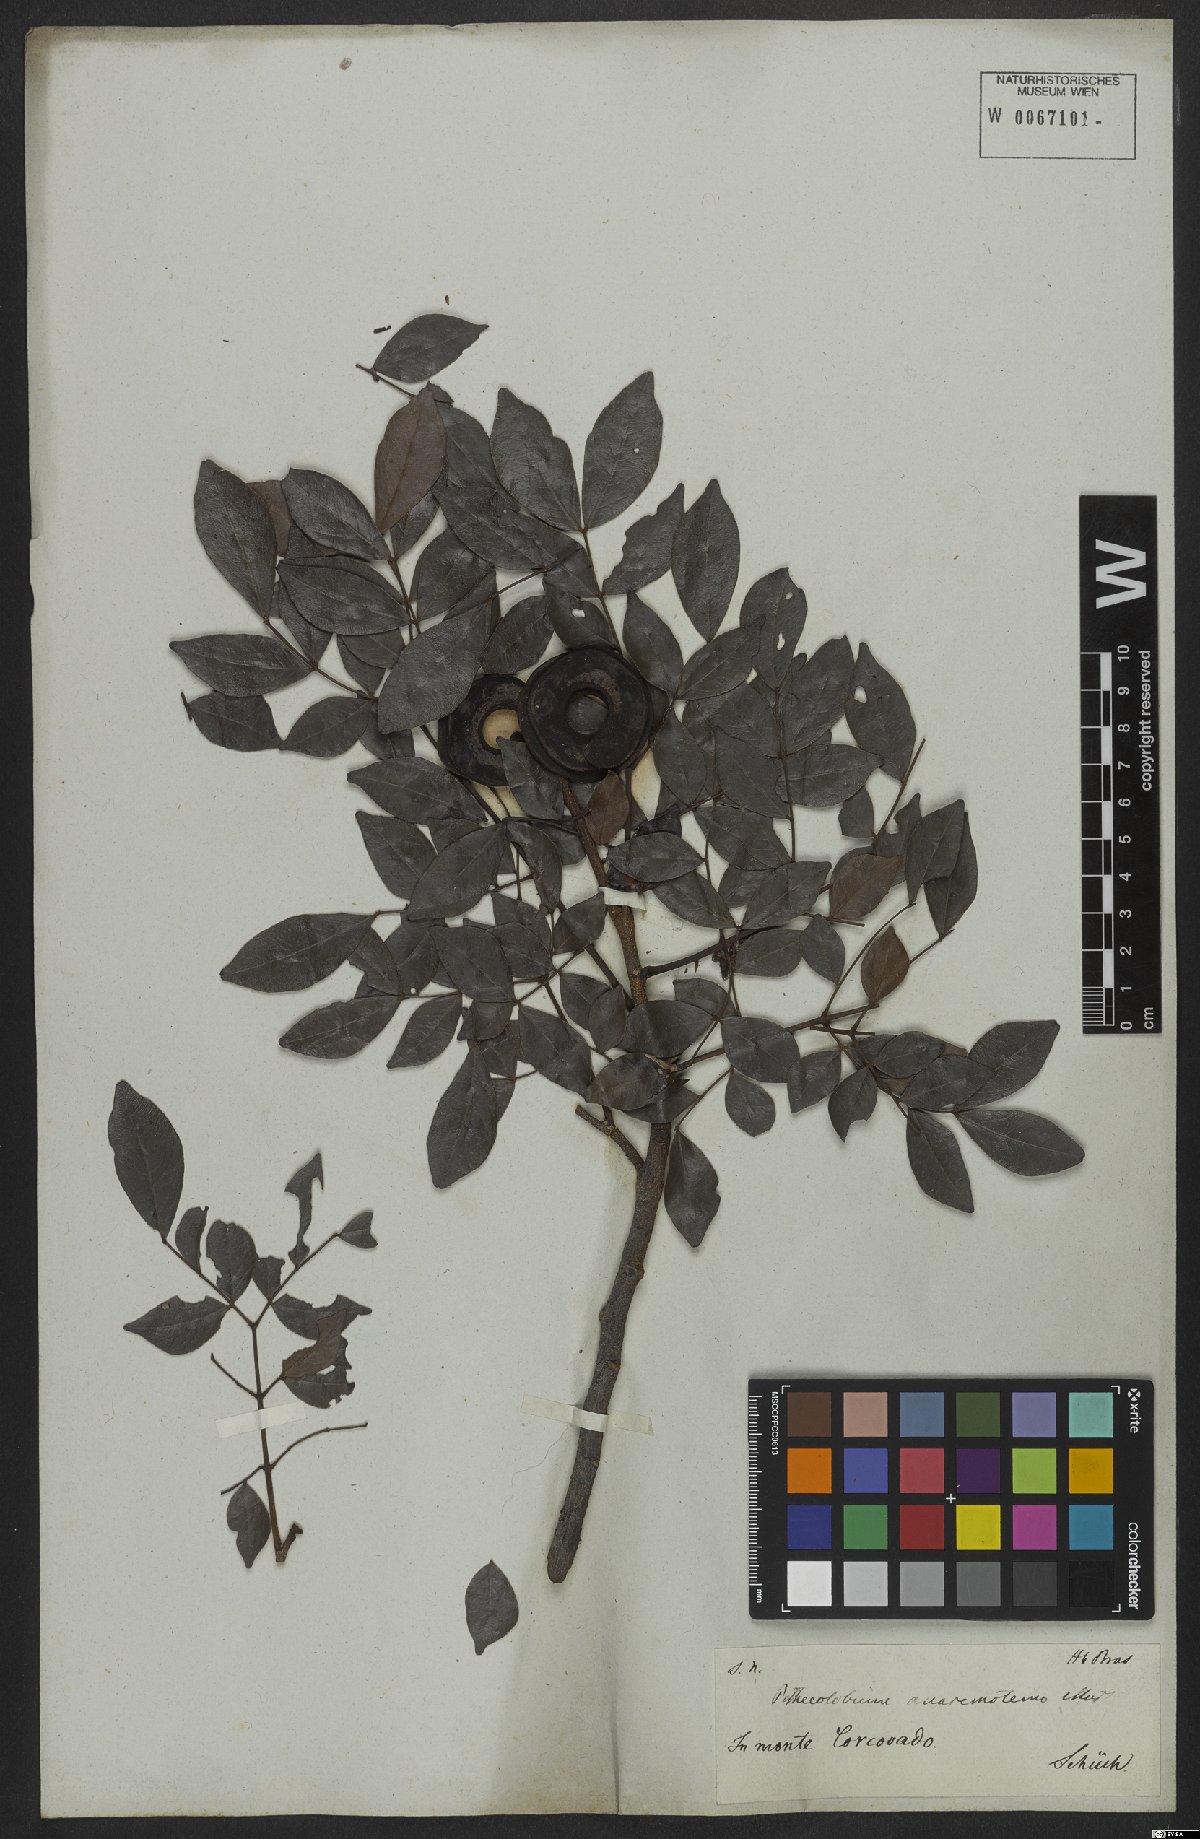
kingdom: Plantae
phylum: Tracheophyta
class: Magnoliopsida
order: Fabales
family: Fabaceae
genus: Abarema
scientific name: Abarema cochliacarpos
